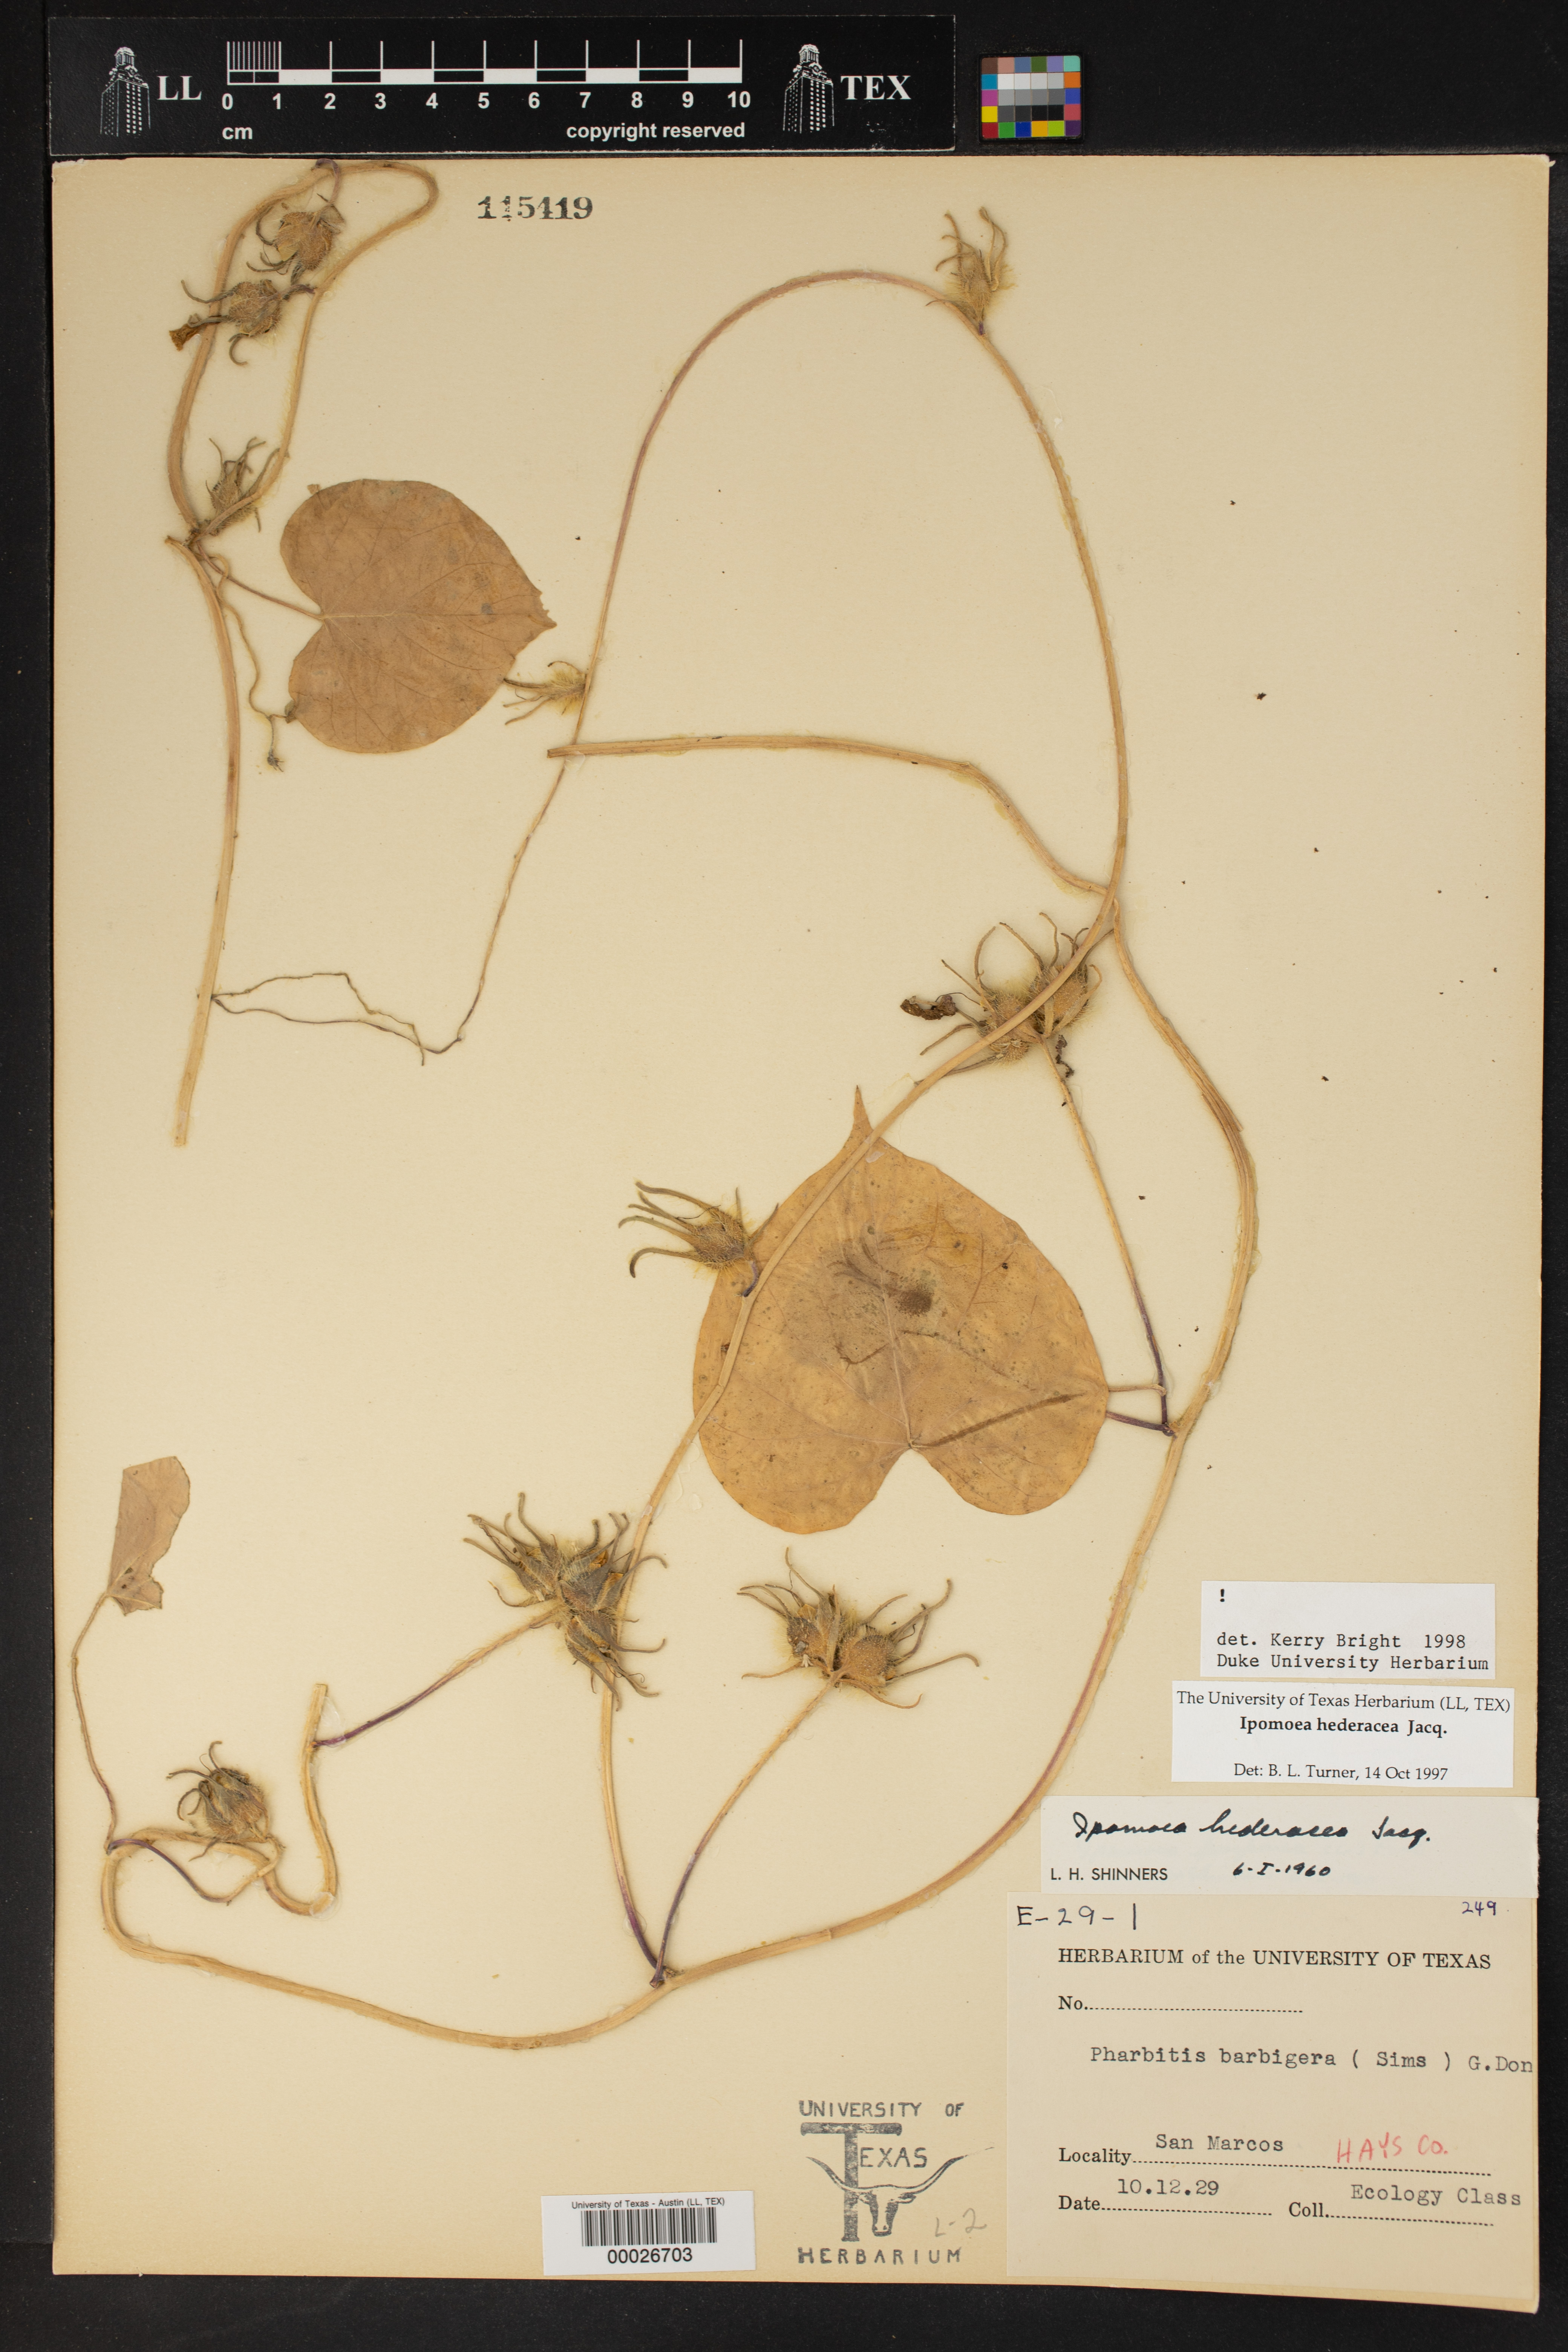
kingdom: Plantae
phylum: Tracheophyta
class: Magnoliopsida
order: Solanales
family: Convolvulaceae
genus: Ipomoea
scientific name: Ipomoea hederacea
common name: Ivy-leaved morning-glory
